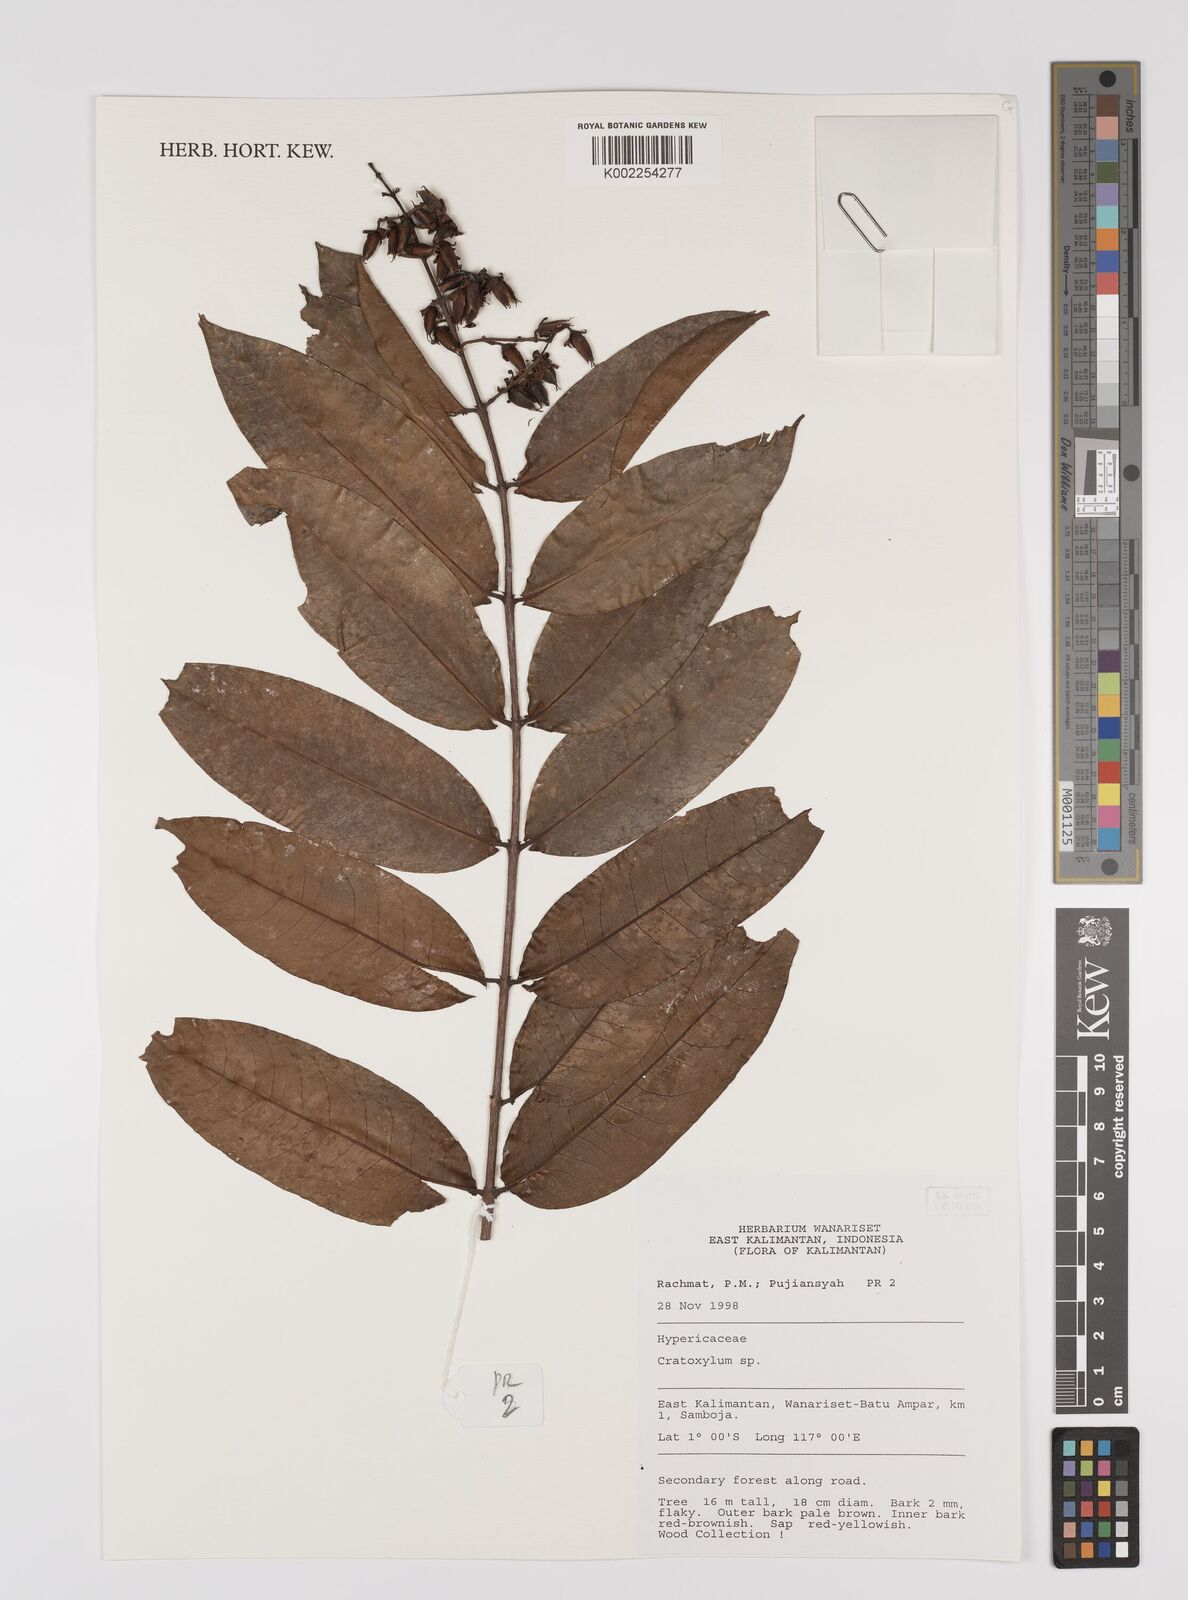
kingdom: Plantae
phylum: Tracheophyta
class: Magnoliopsida
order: Malpighiales
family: Hypericaceae
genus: Cratoxylum
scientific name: Cratoxylum
